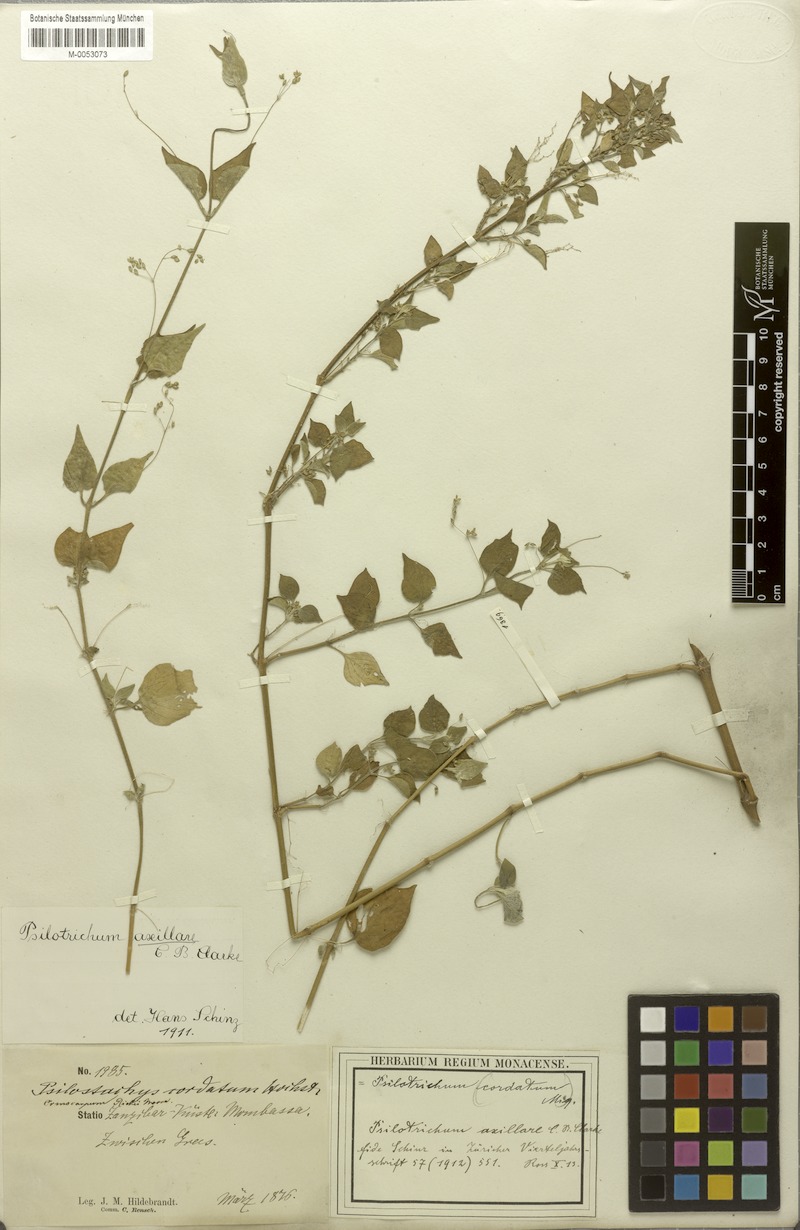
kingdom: Plantae
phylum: Tracheophyta
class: Magnoliopsida
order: Caryophyllales
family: Amaranthaceae
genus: Psilotrichum
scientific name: Psilotrichum sericeum
